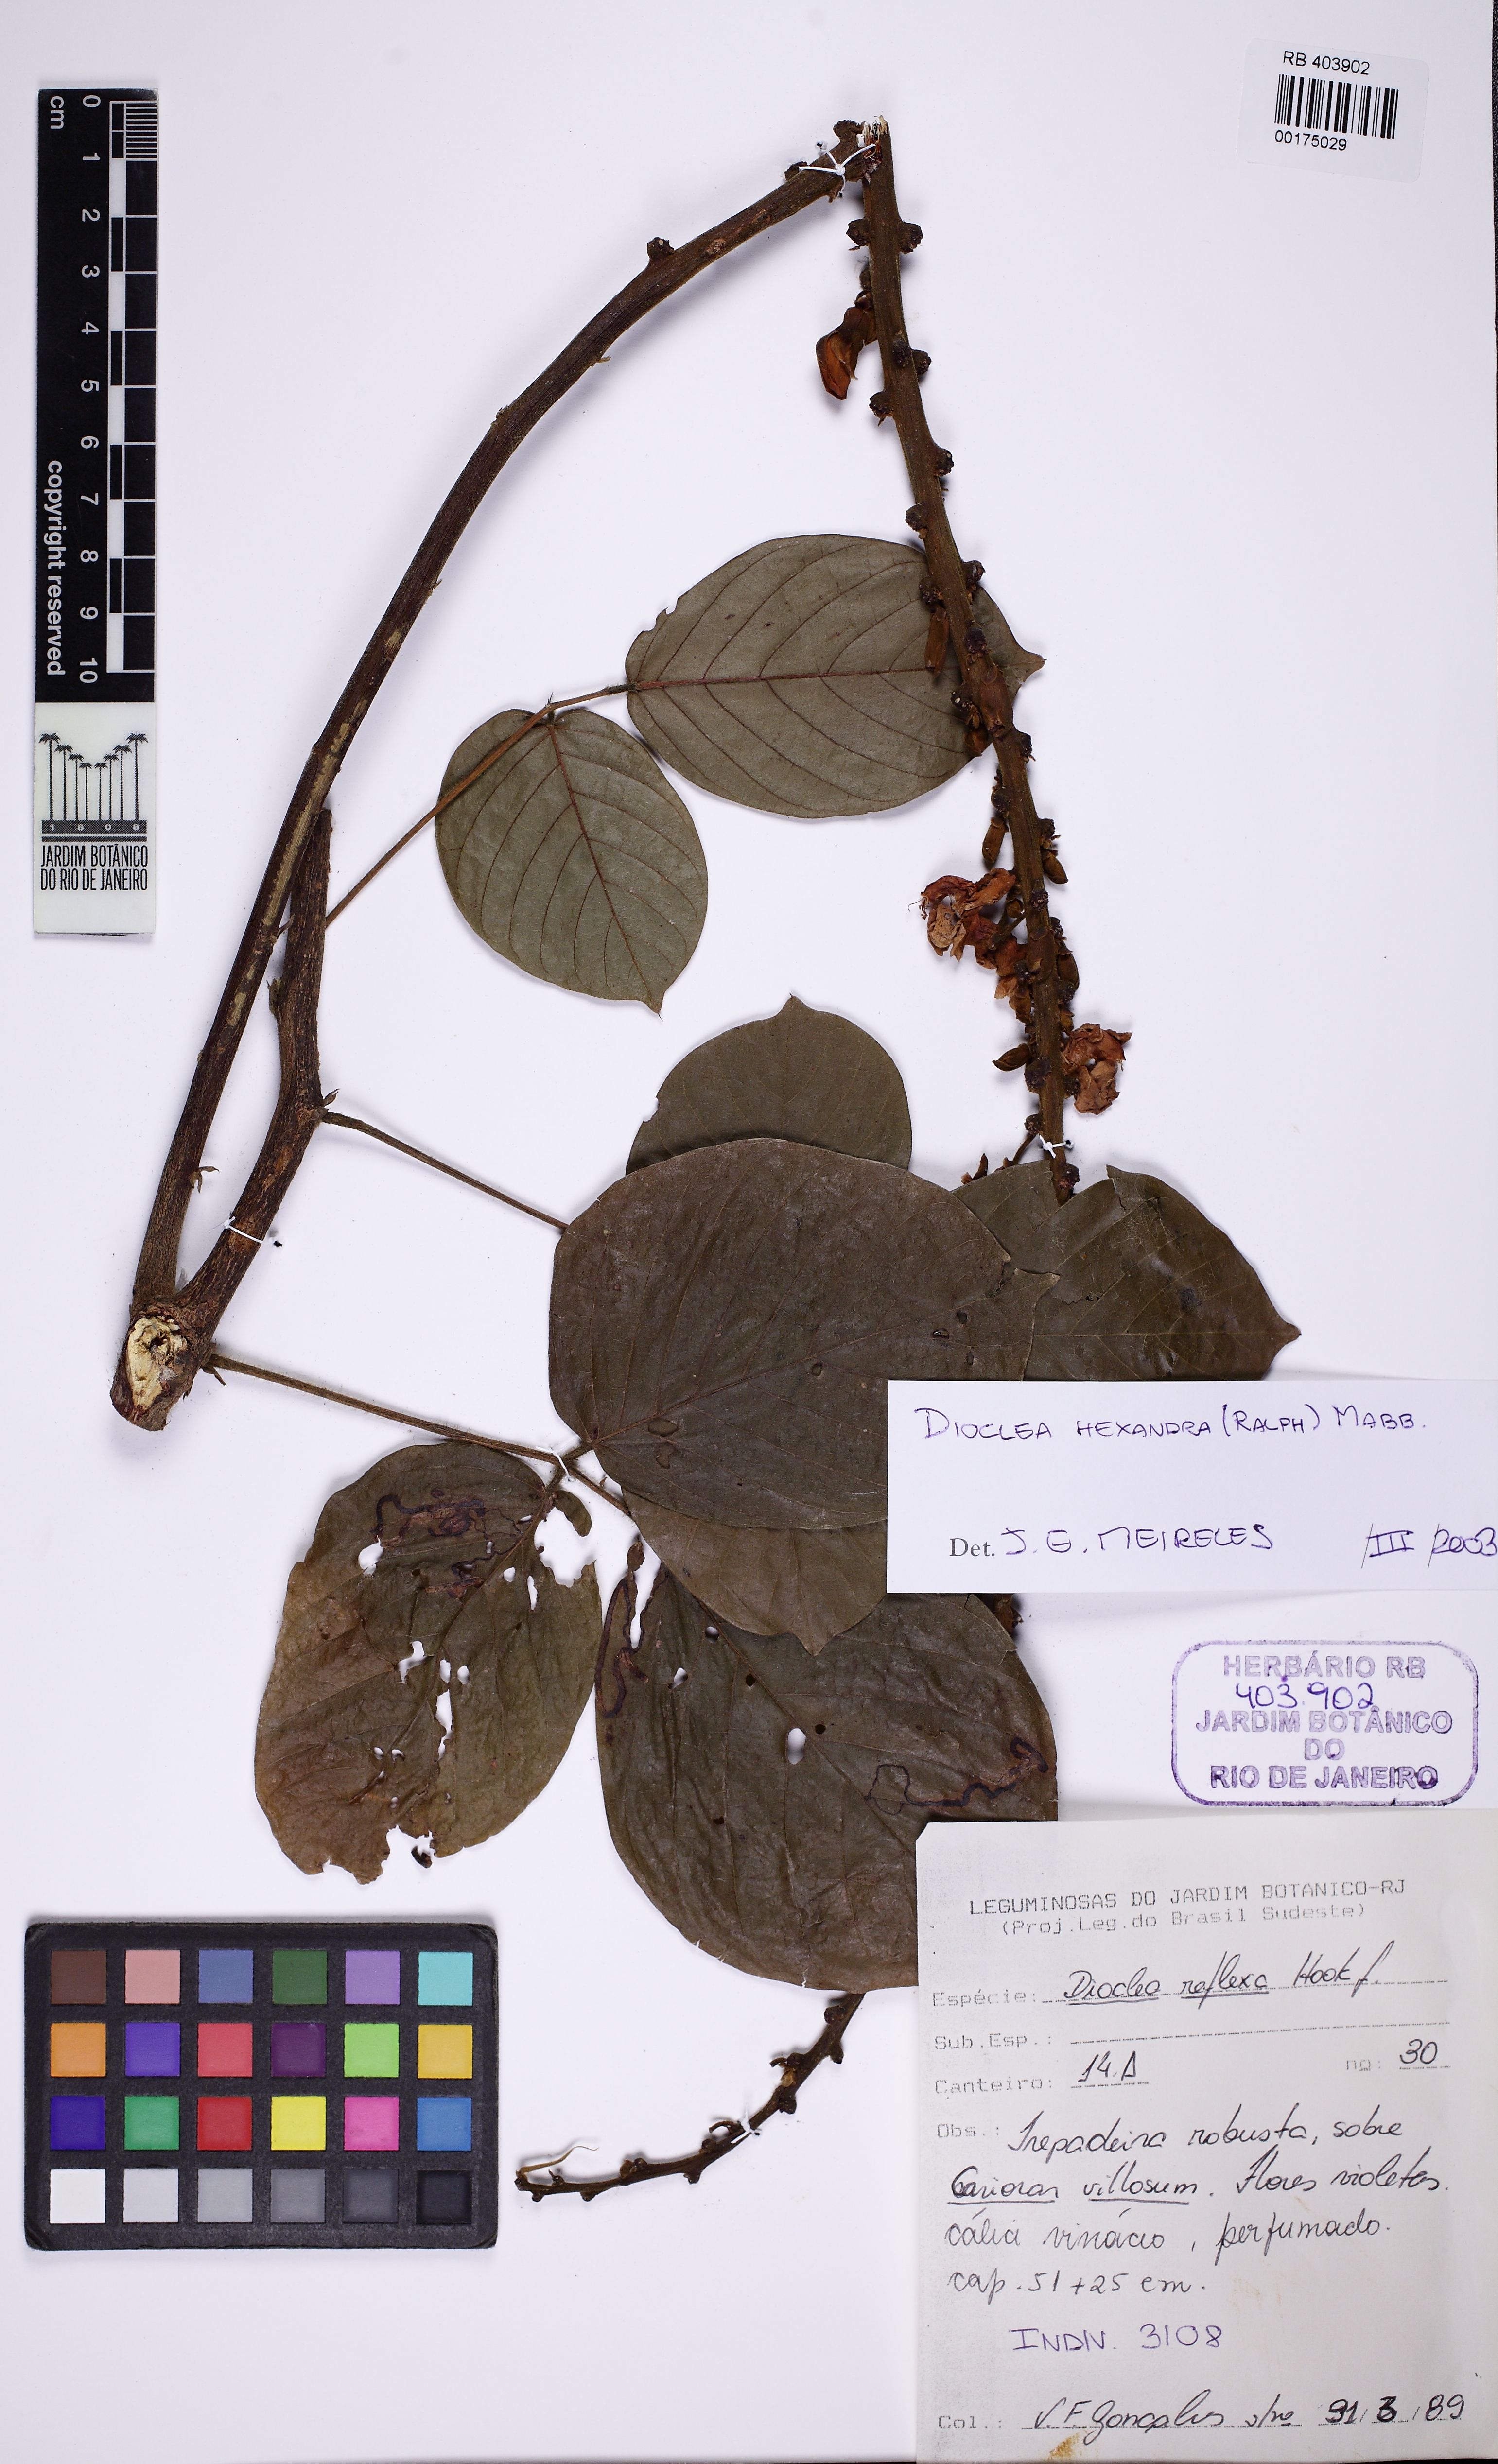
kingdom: Plantae
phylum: Tracheophyta
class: Magnoliopsida
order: Fabales
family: Fabaceae
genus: Macropsychanthus
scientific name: Macropsychanthus hexander
